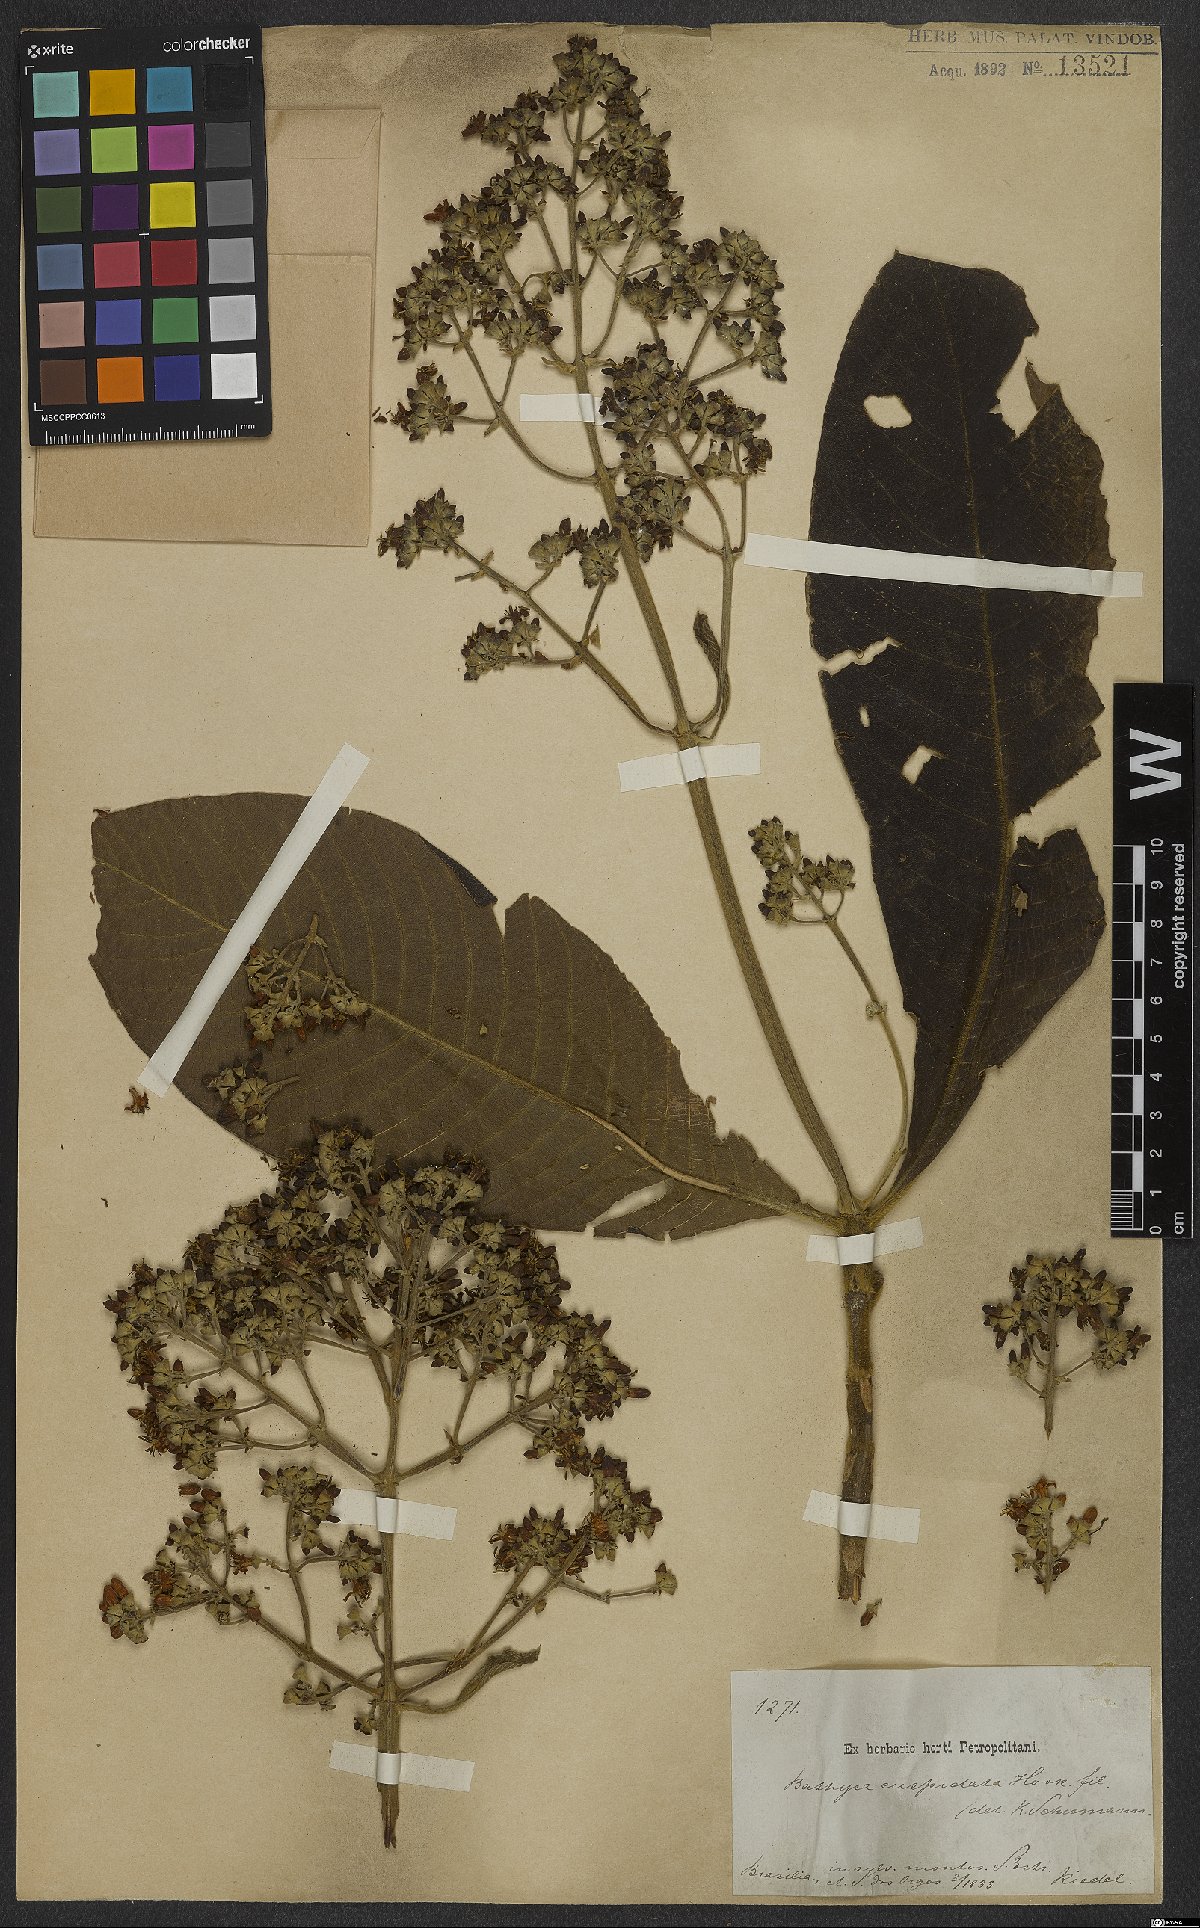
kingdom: Plantae
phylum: Tracheophyta
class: Magnoliopsida
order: Gentianales
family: Rubiaceae
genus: Schizocalyx
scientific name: Schizocalyx cuspidatus
